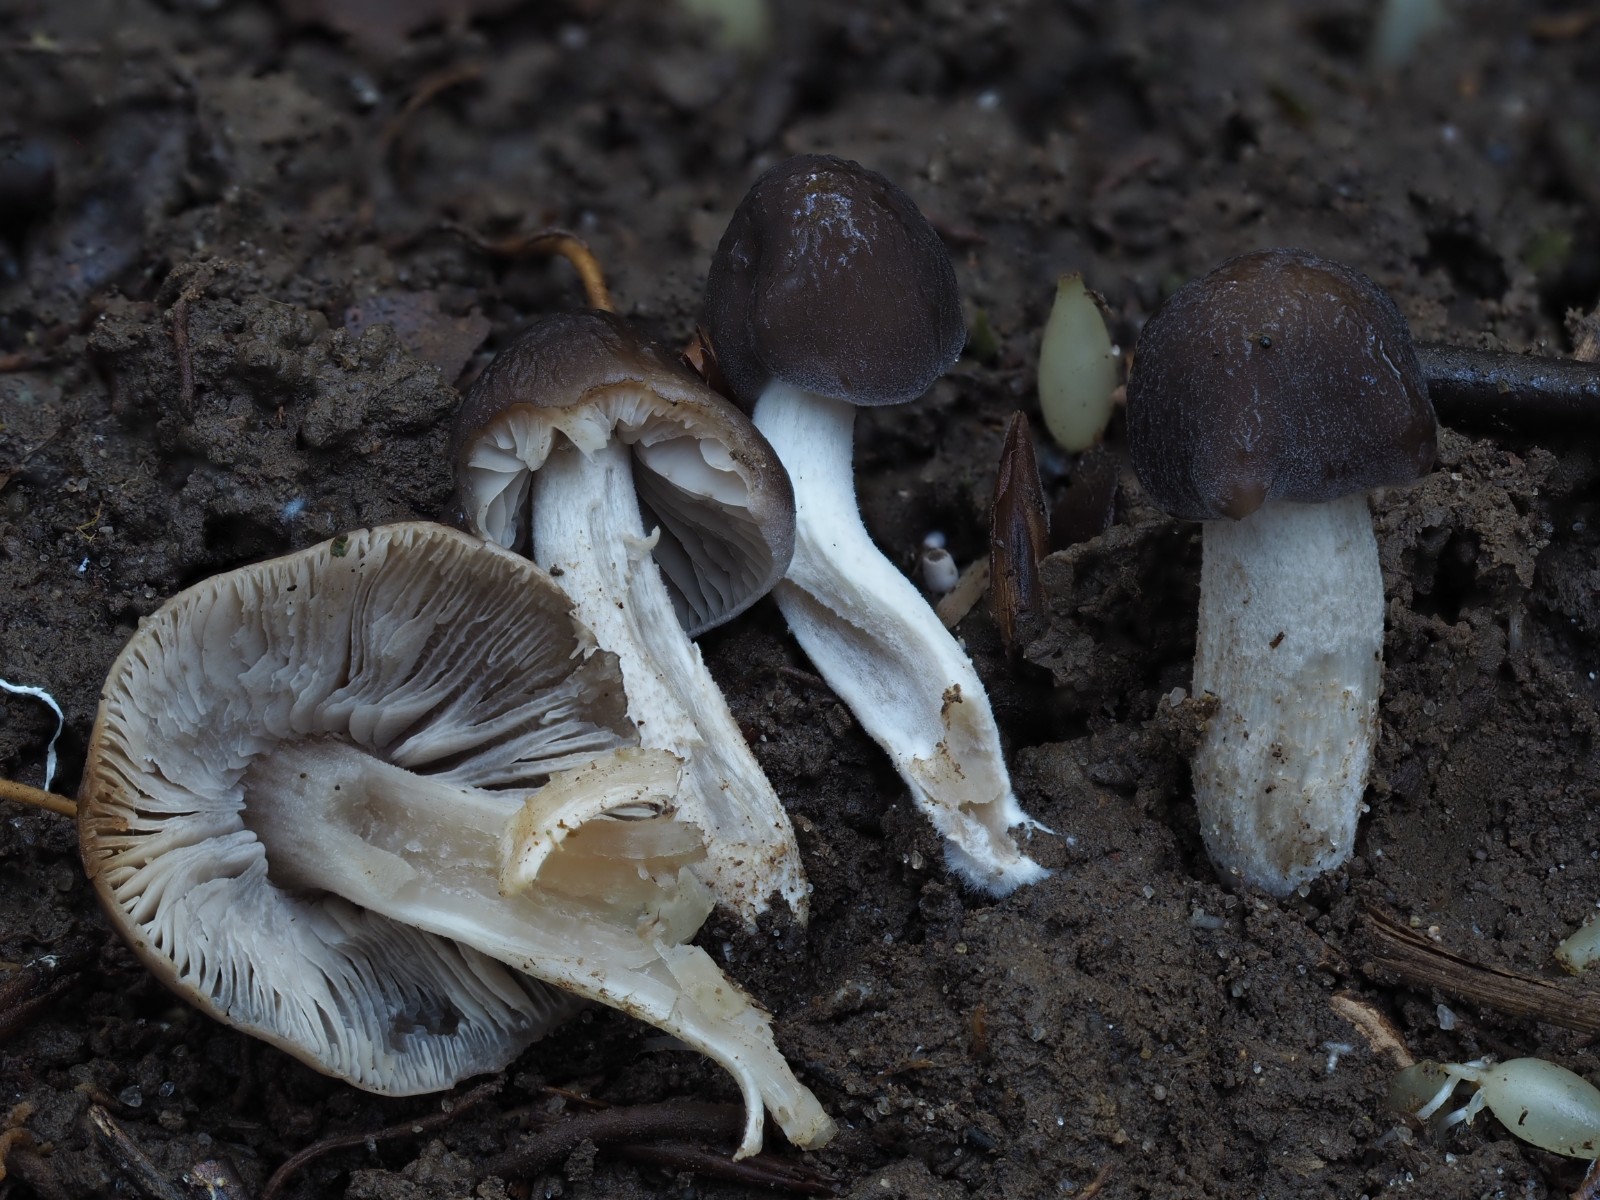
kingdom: Fungi
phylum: Basidiomycota
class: Agaricomycetes
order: Agaricales
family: Tricholomataceae
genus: Dermoloma
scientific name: Dermoloma cuneifolium
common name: eng-nonnehat
